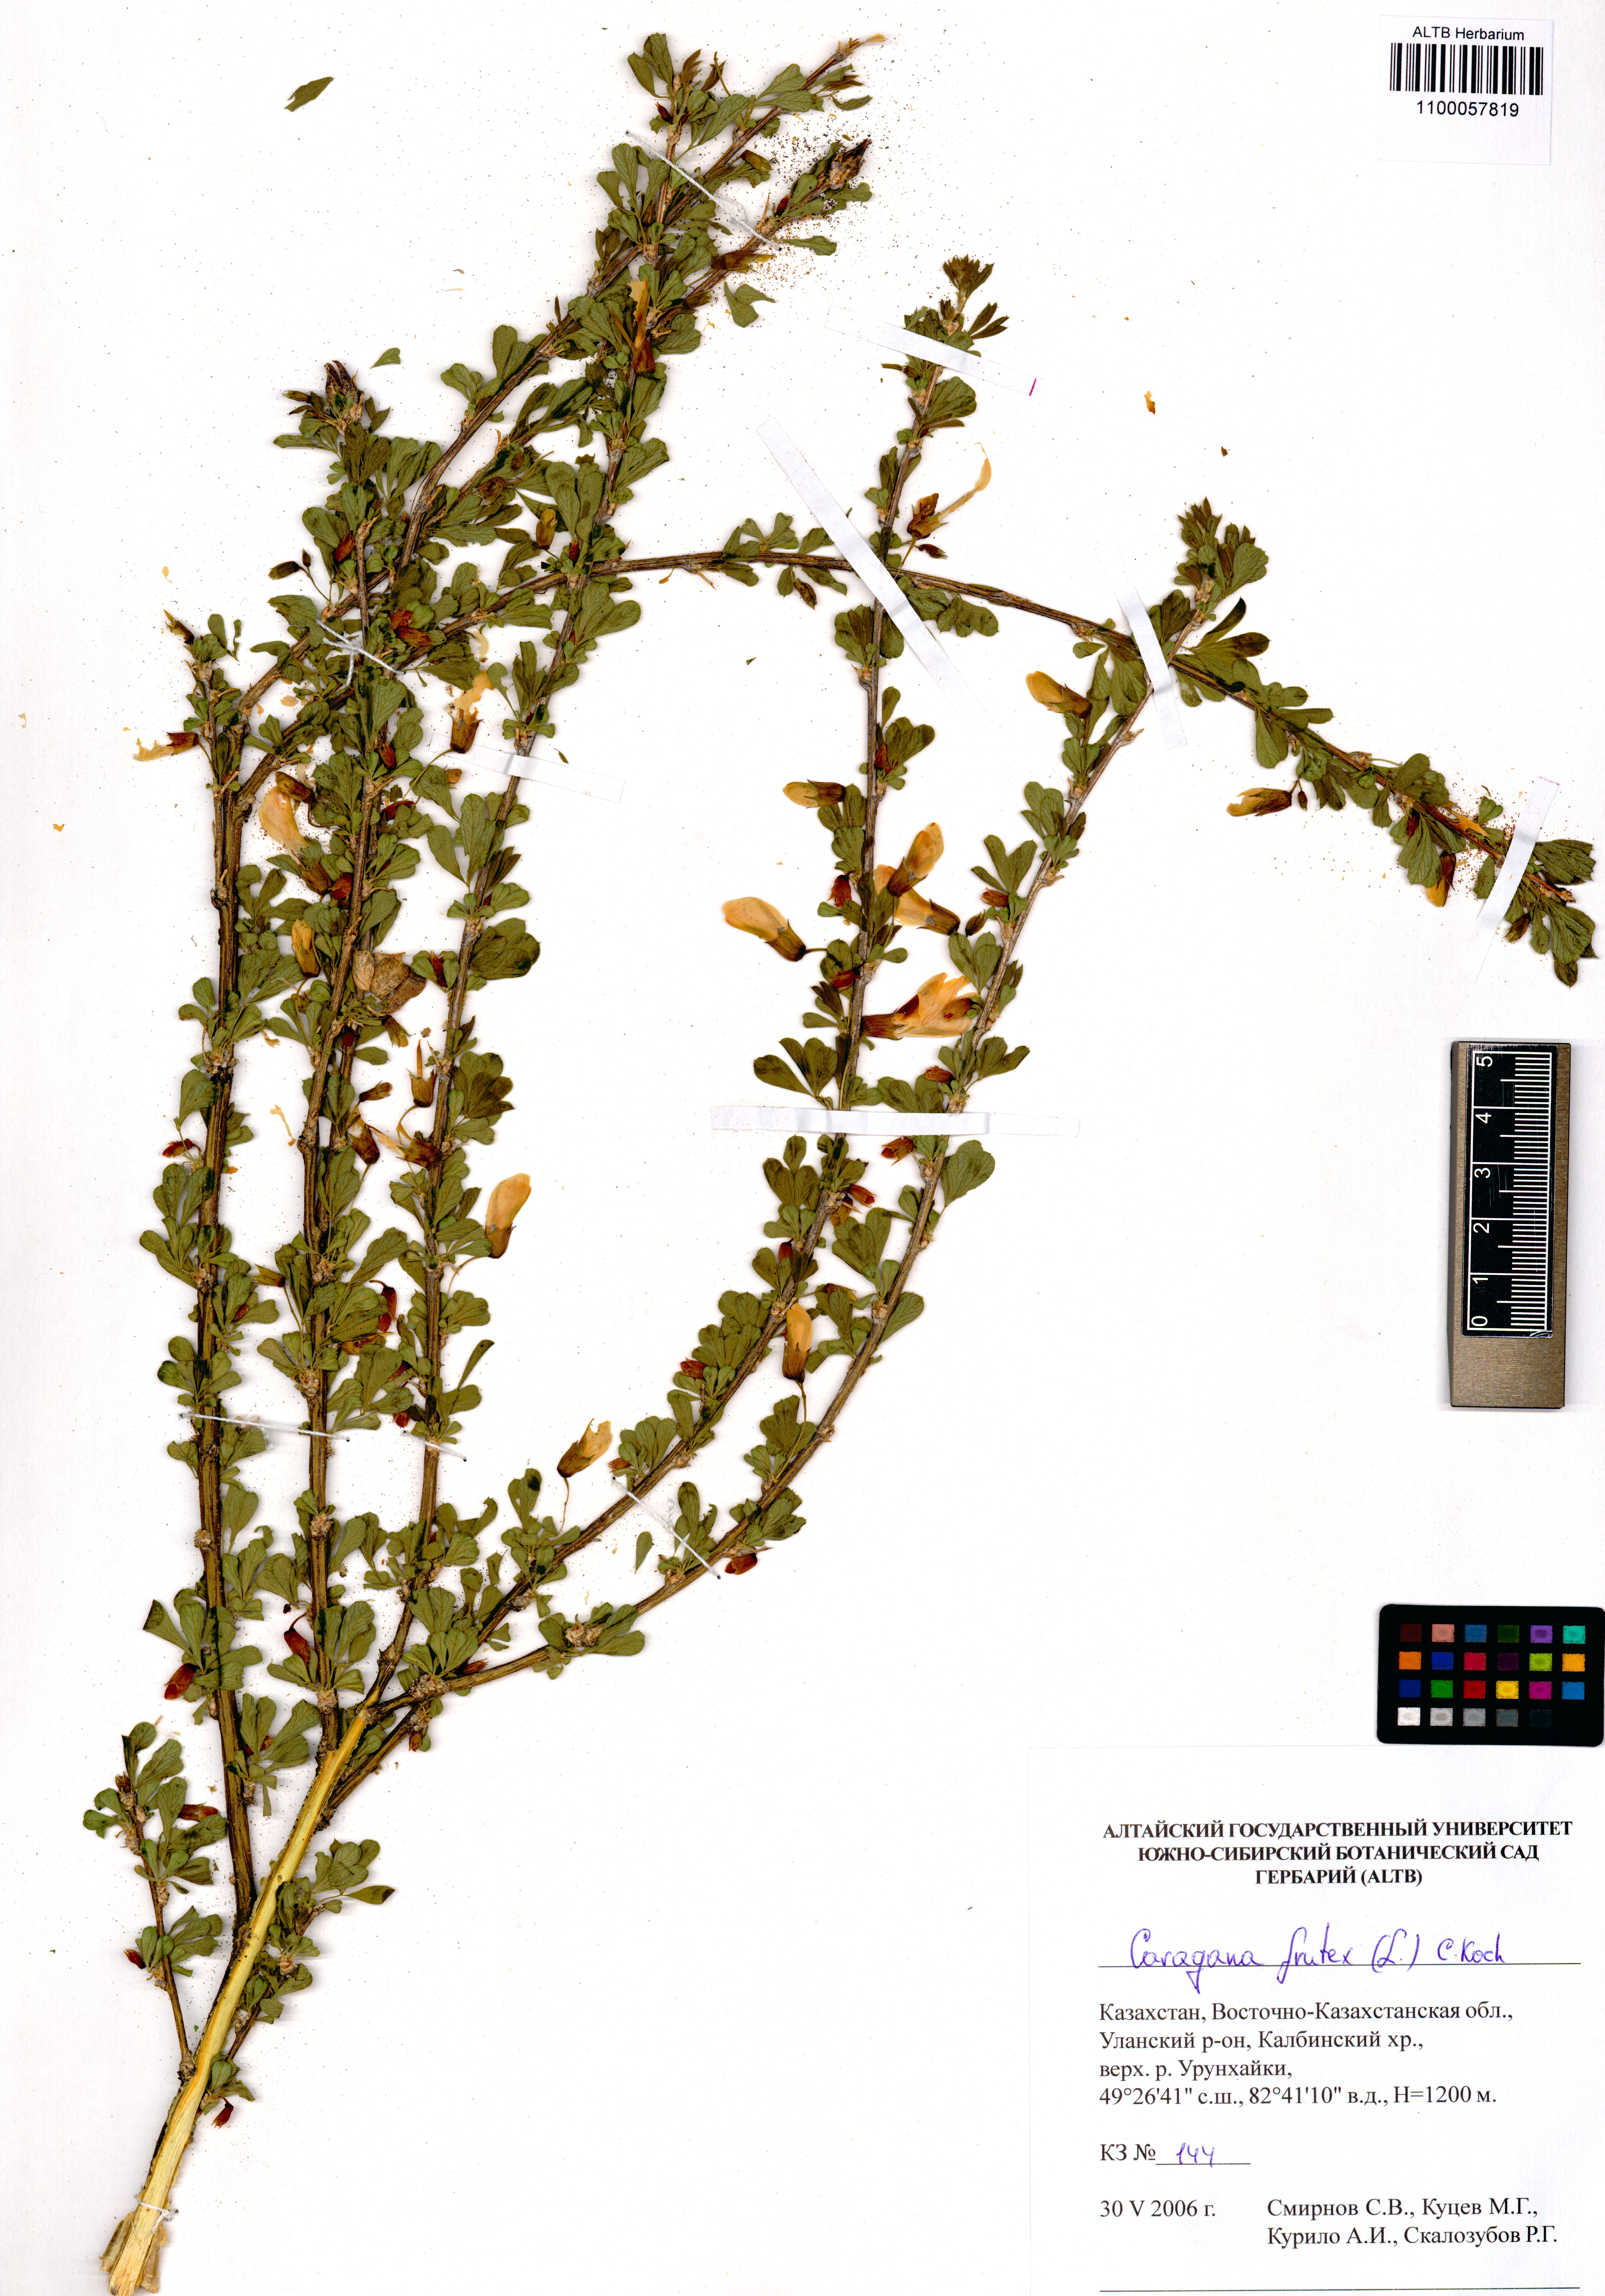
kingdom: Plantae
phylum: Tracheophyta
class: Magnoliopsida
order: Fabales
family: Fabaceae
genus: Caragana
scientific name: Caragana frutex
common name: Russian peashrub
